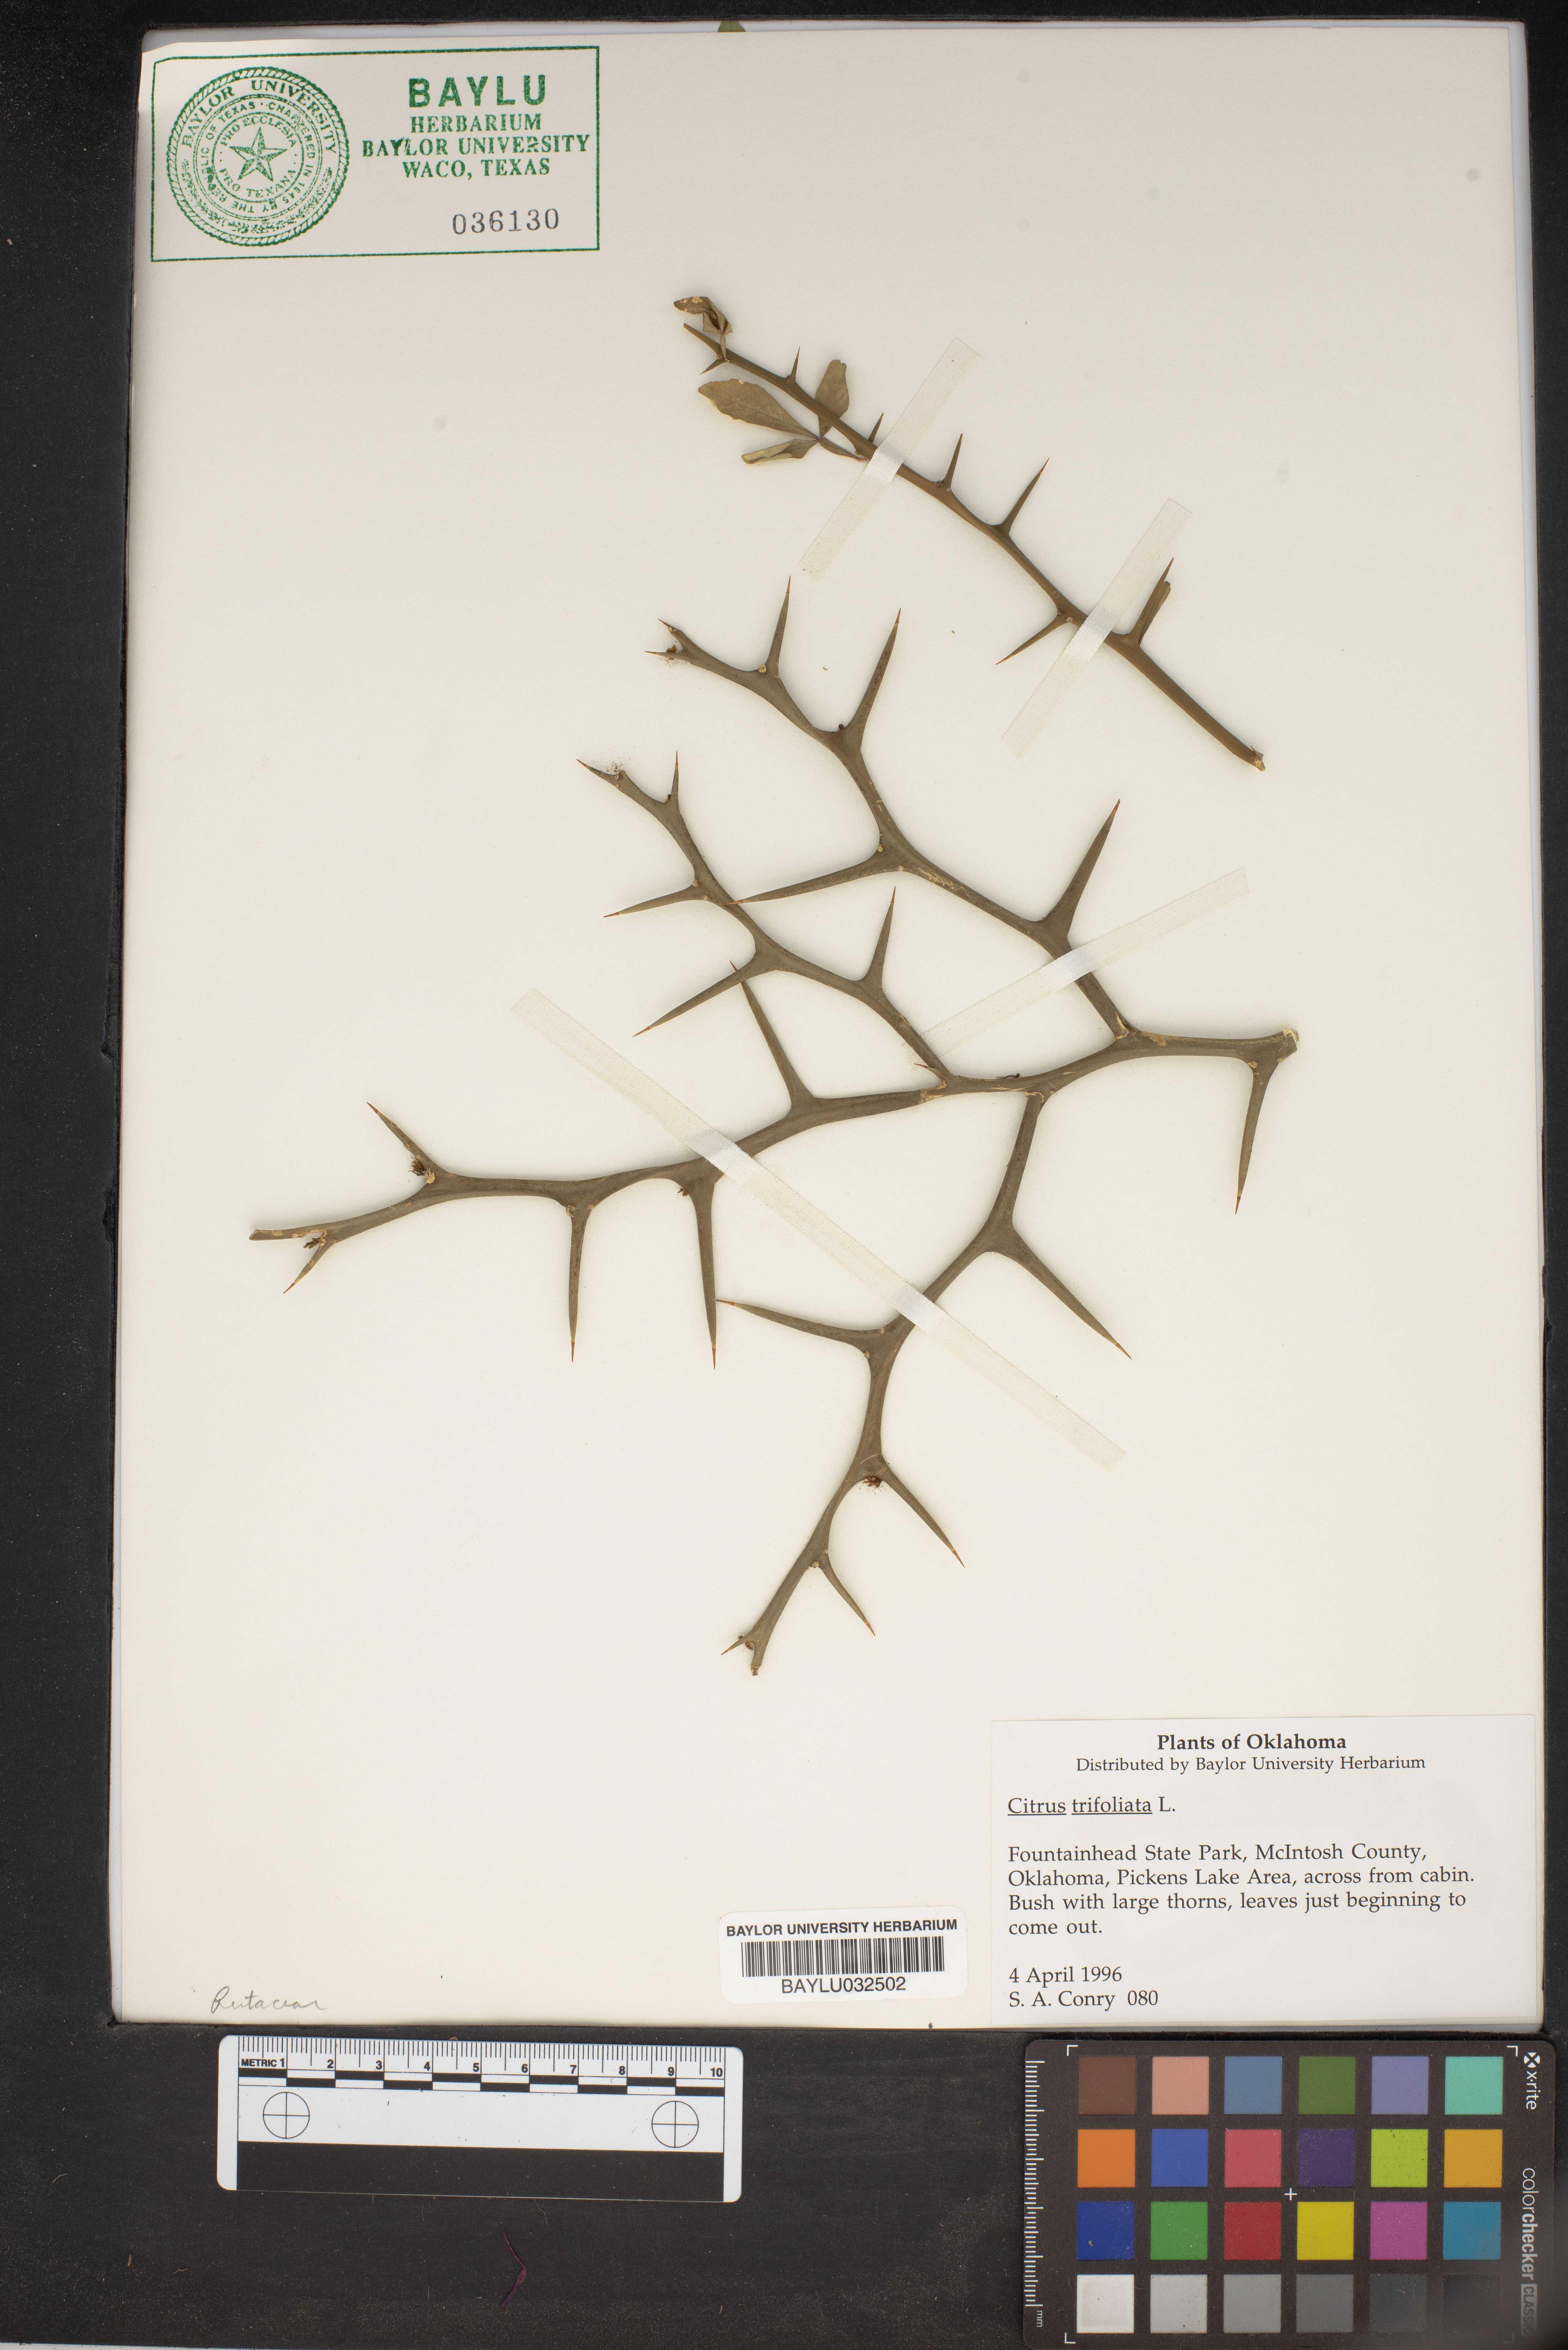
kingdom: Plantae
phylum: Tracheophyta
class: Magnoliopsida
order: Sapindales
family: Rutaceae
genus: Citrus
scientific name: Citrus trifoliata
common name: Japanese bitter-orange
